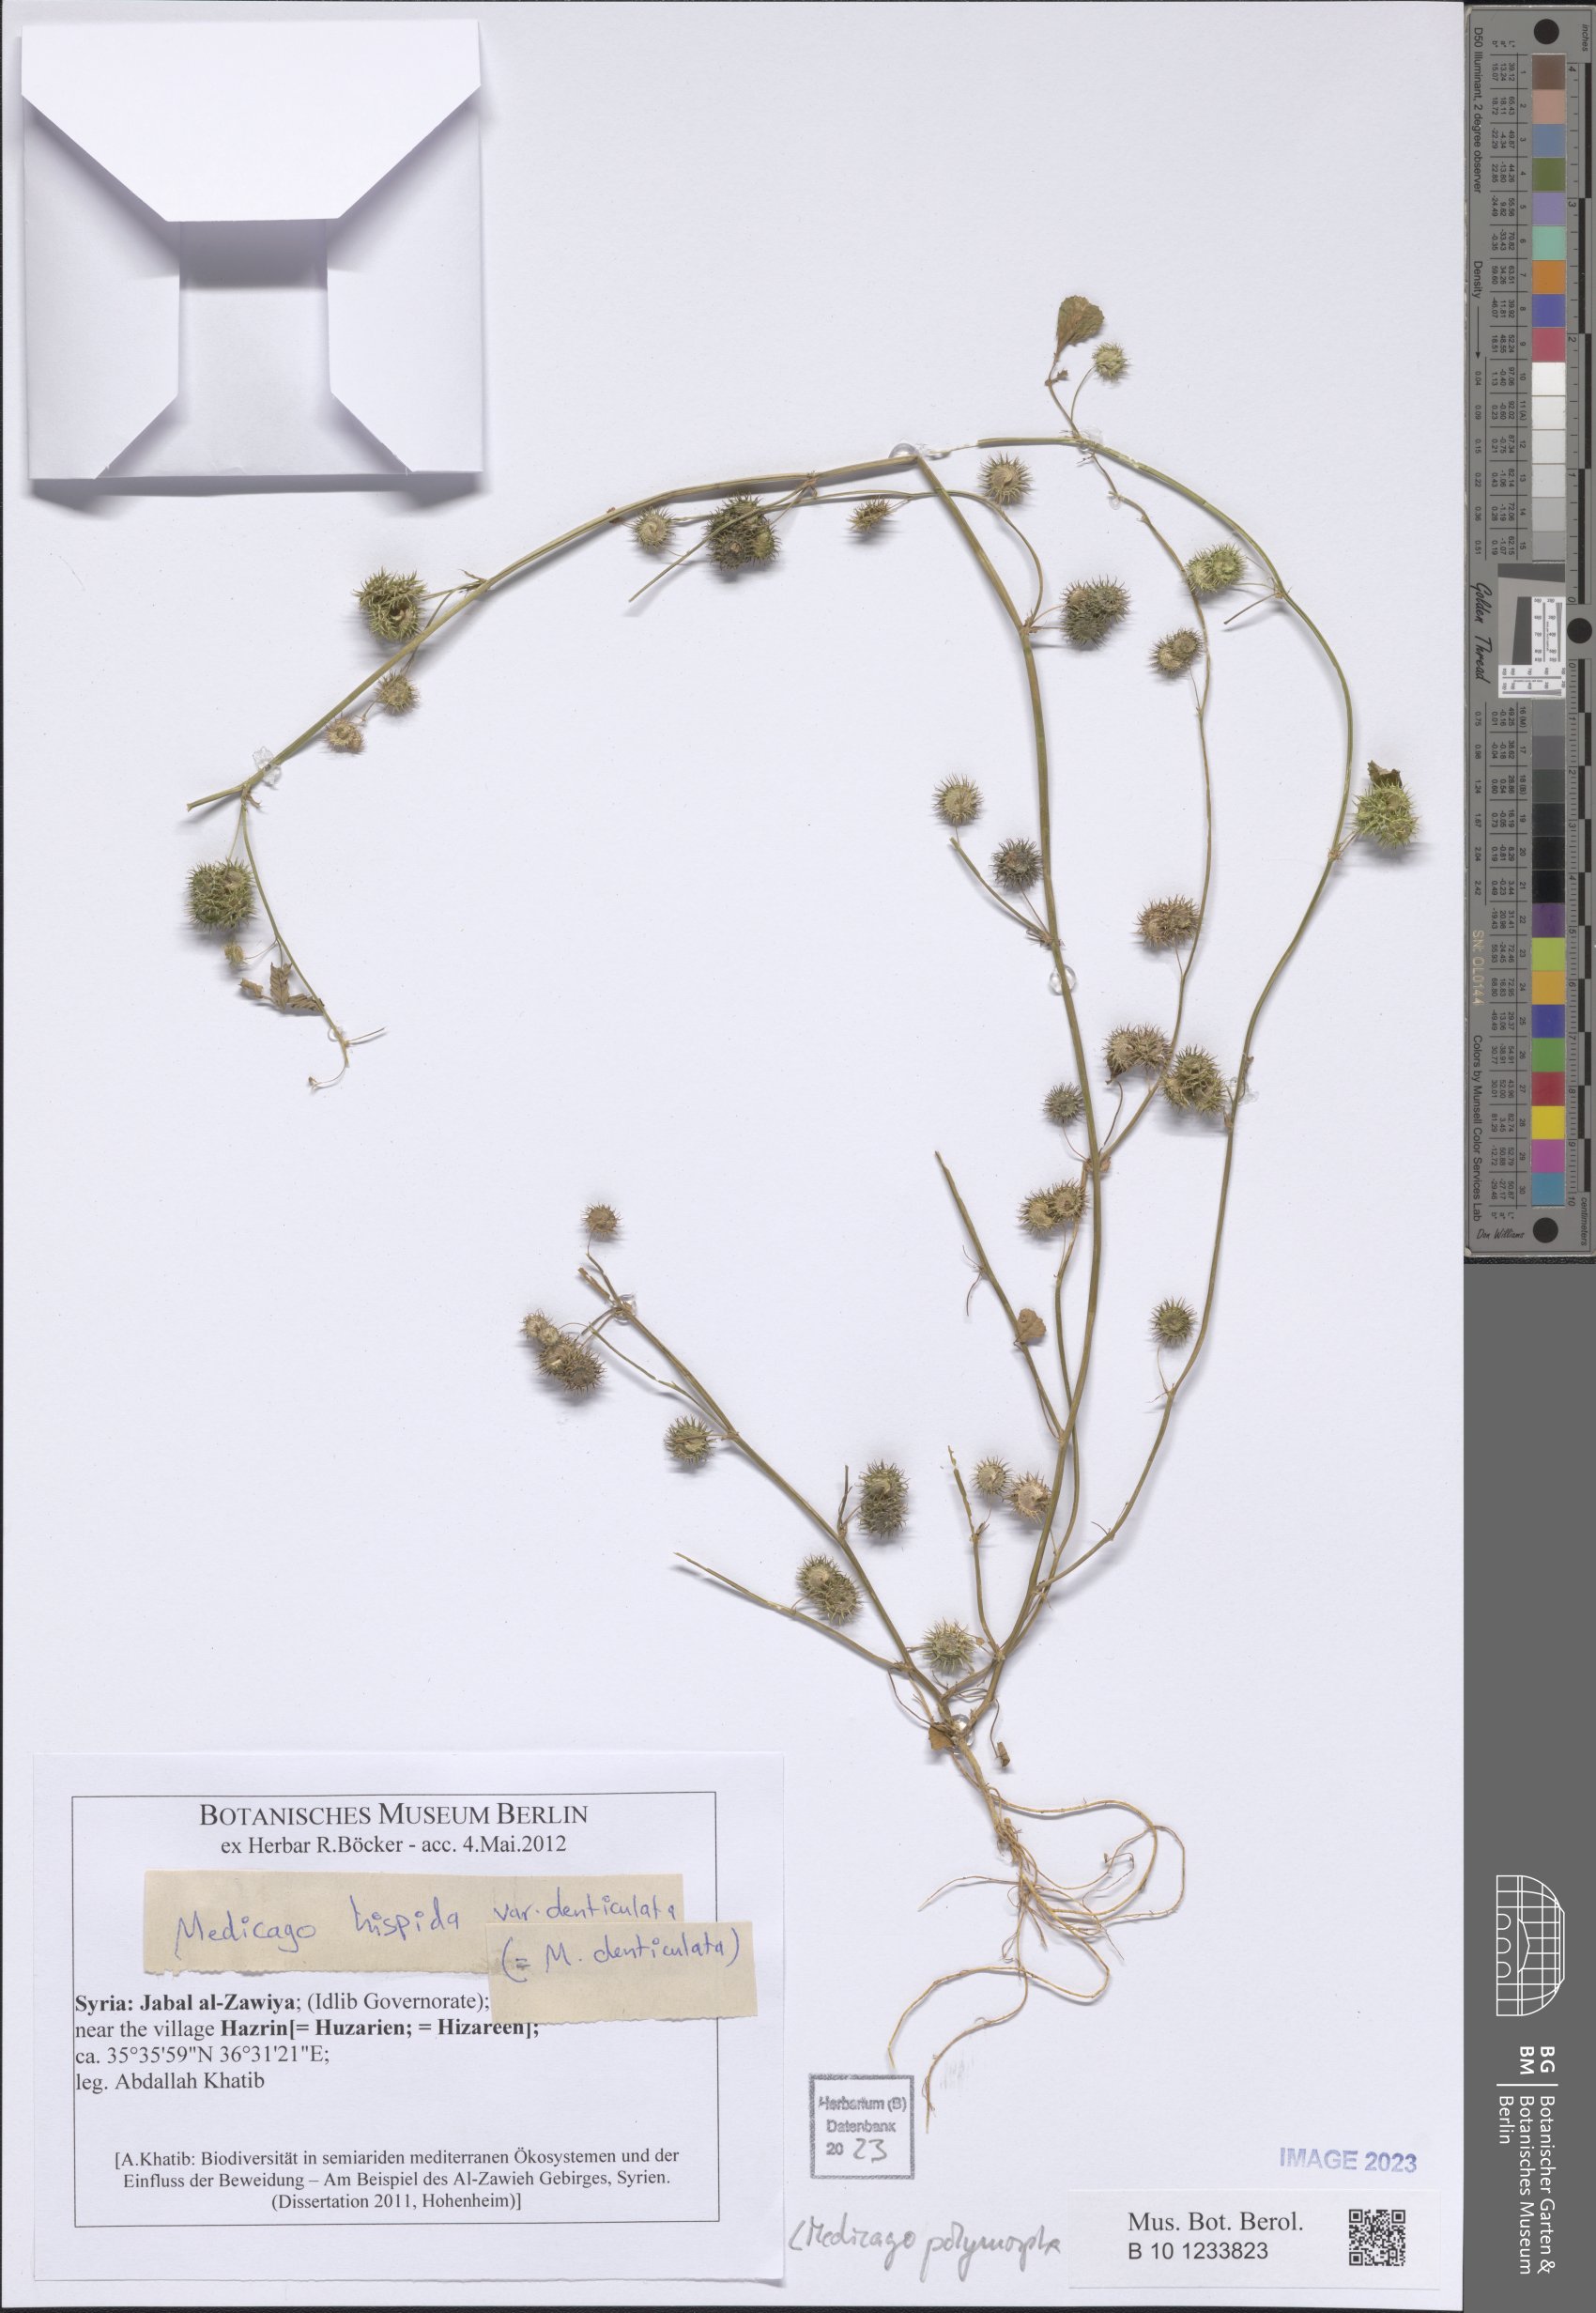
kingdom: Plantae
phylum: Tracheophyta
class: Magnoliopsida
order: Fabales
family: Fabaceae
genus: Medicago
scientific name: Medicago polymorpha
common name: Burclover
